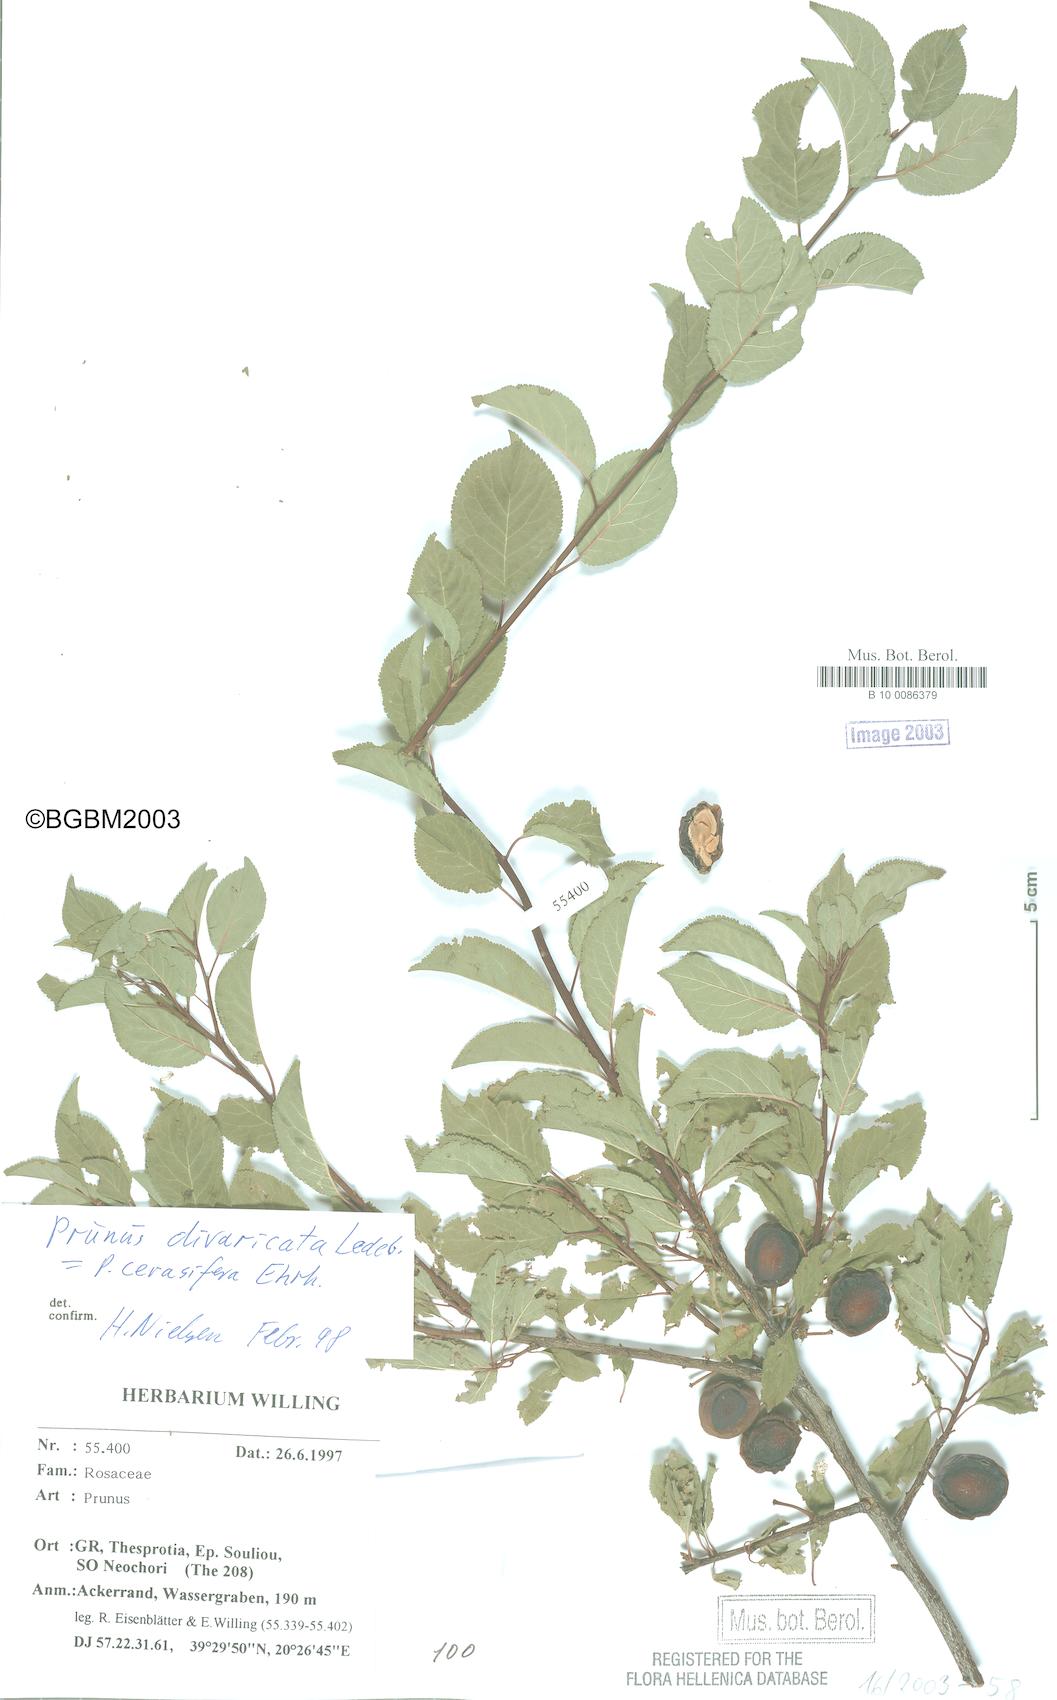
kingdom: Plantae
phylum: Tracheophyta
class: Magnoliopsida
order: Rosales
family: Rosaceae
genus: Prunus
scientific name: Prunus cerasifera
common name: Cherry plum
